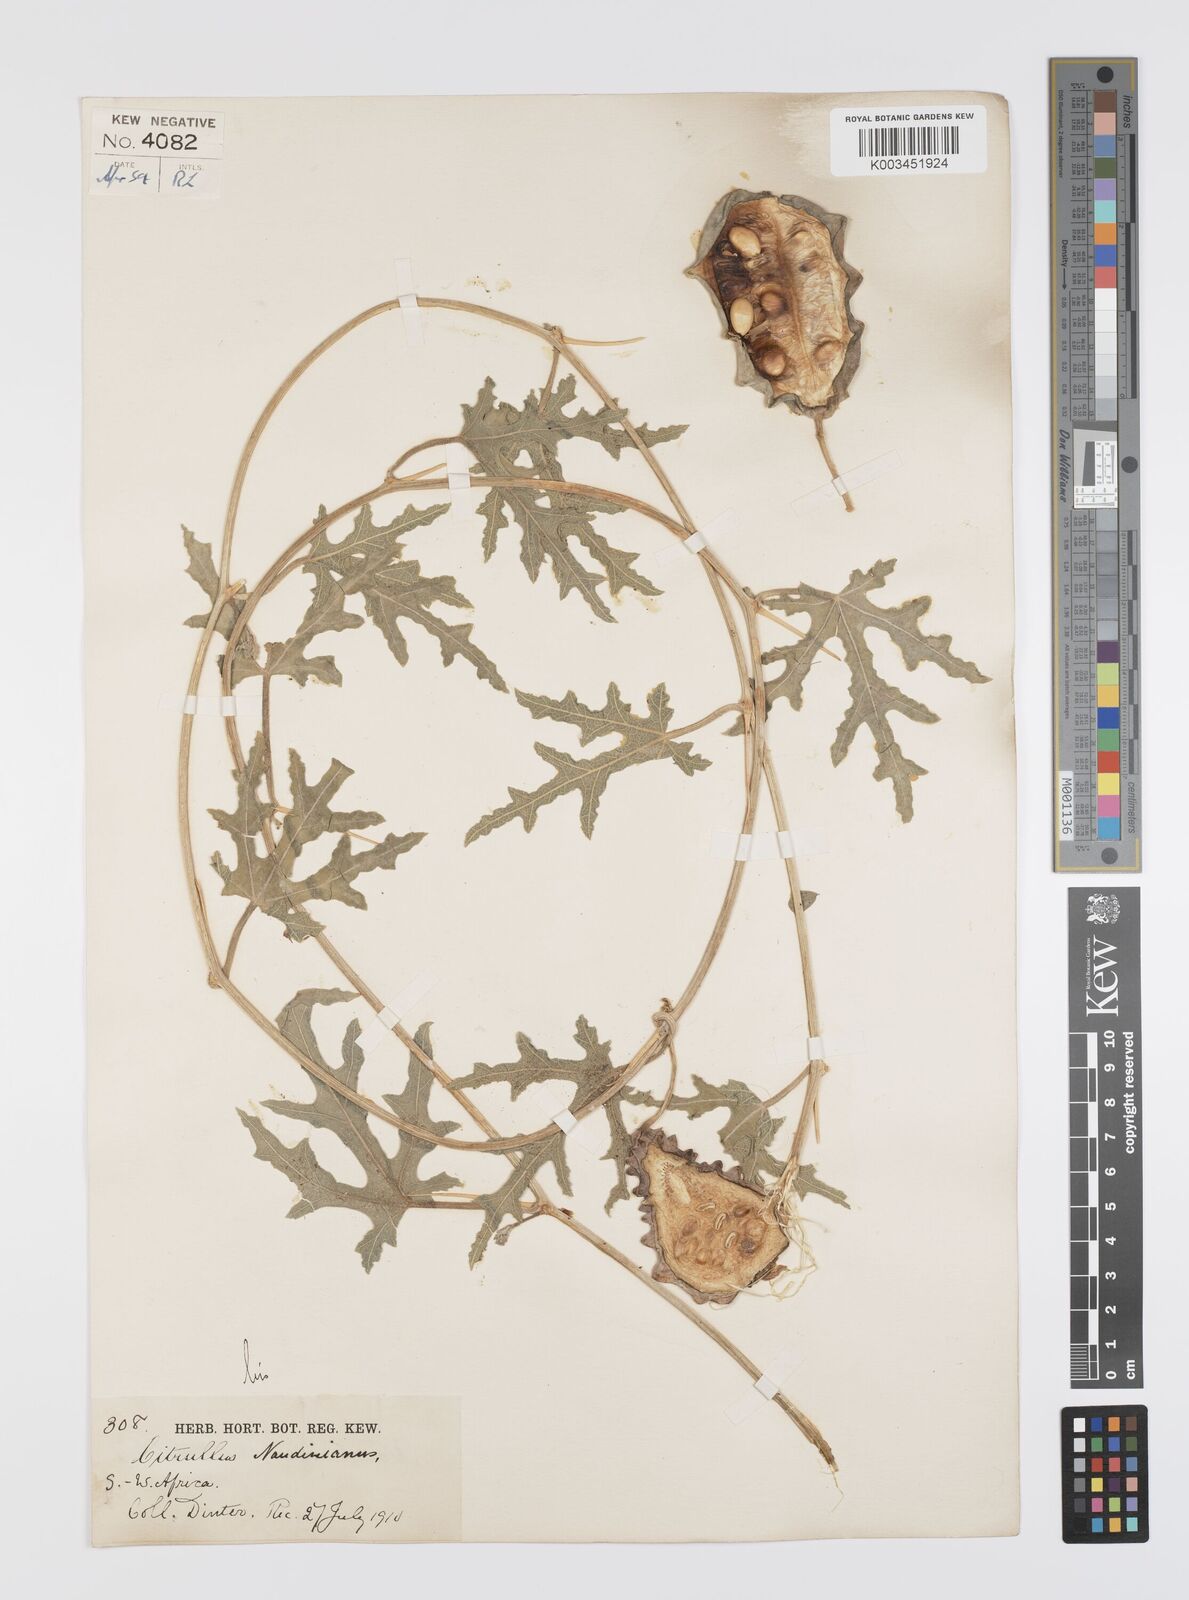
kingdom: Plantae
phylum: Tracheophyta
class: Magnoliopsida
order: Cucurbitales
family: Cucurbitaceae
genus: Citrullus
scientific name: Citrullus naudinianus
